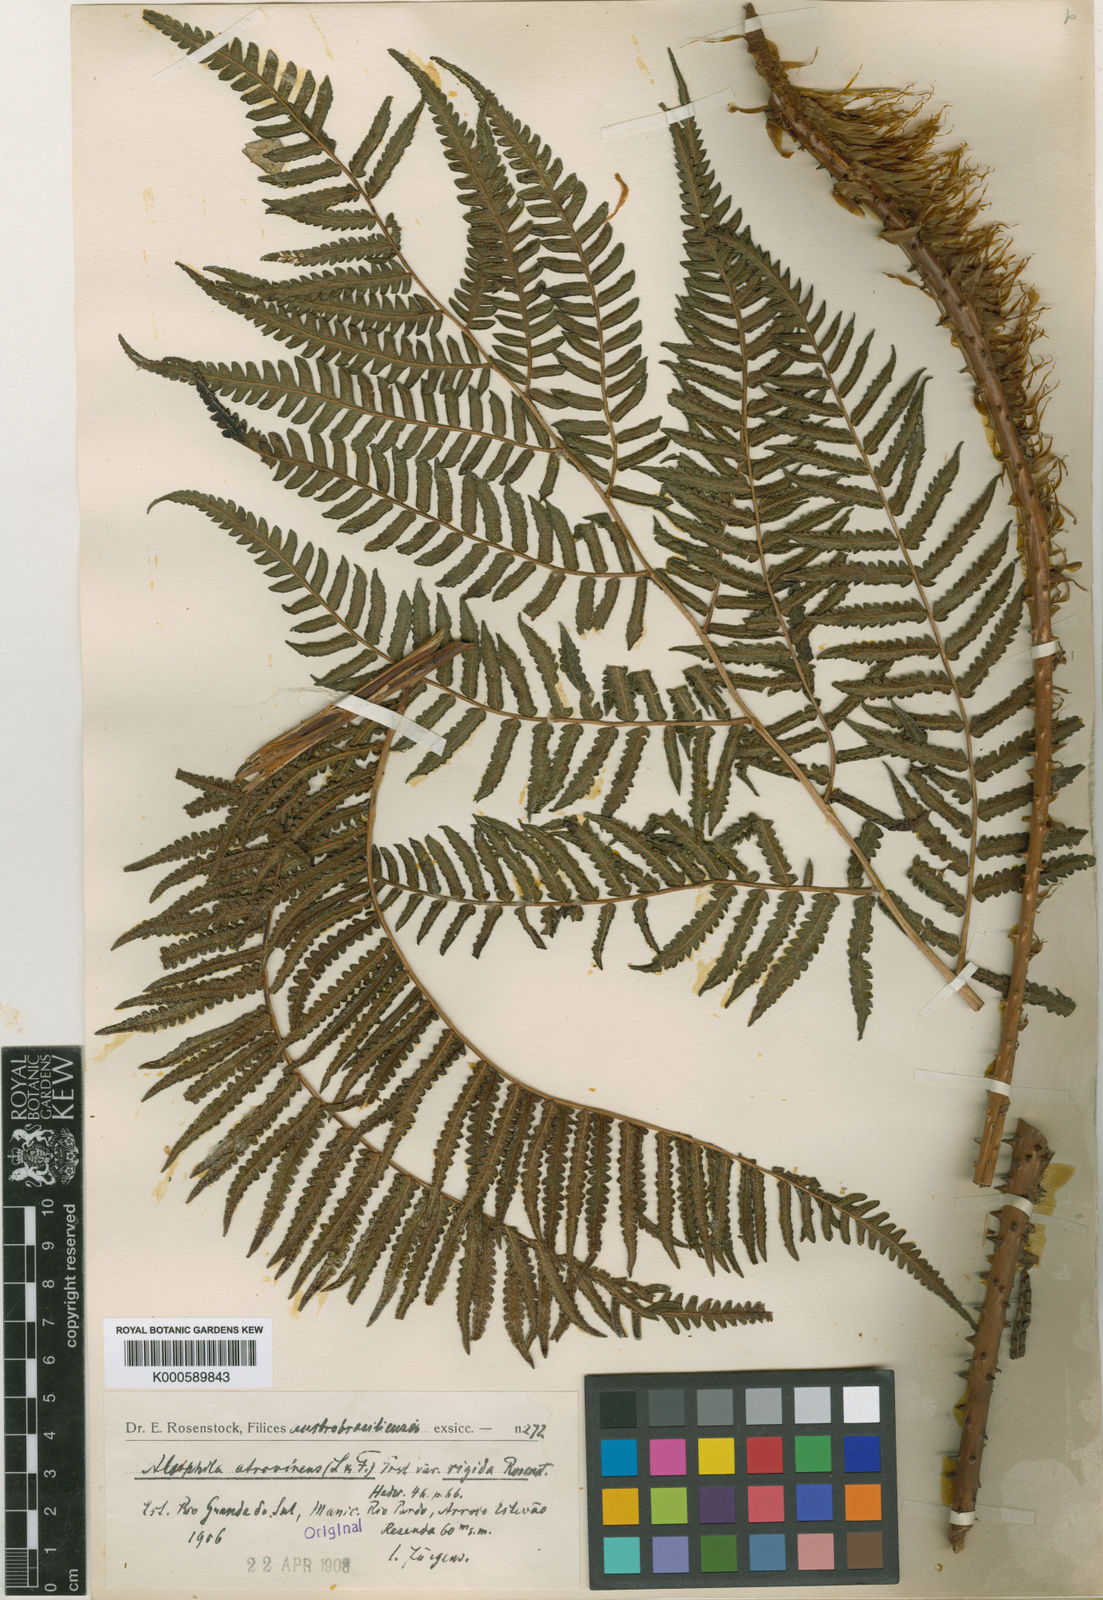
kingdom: Plantae
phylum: Tracheophyta
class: Polypodiopsida
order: Cyatheales
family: Cyatheaceae
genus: Cyathea
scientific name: Cyathea atrovirens
